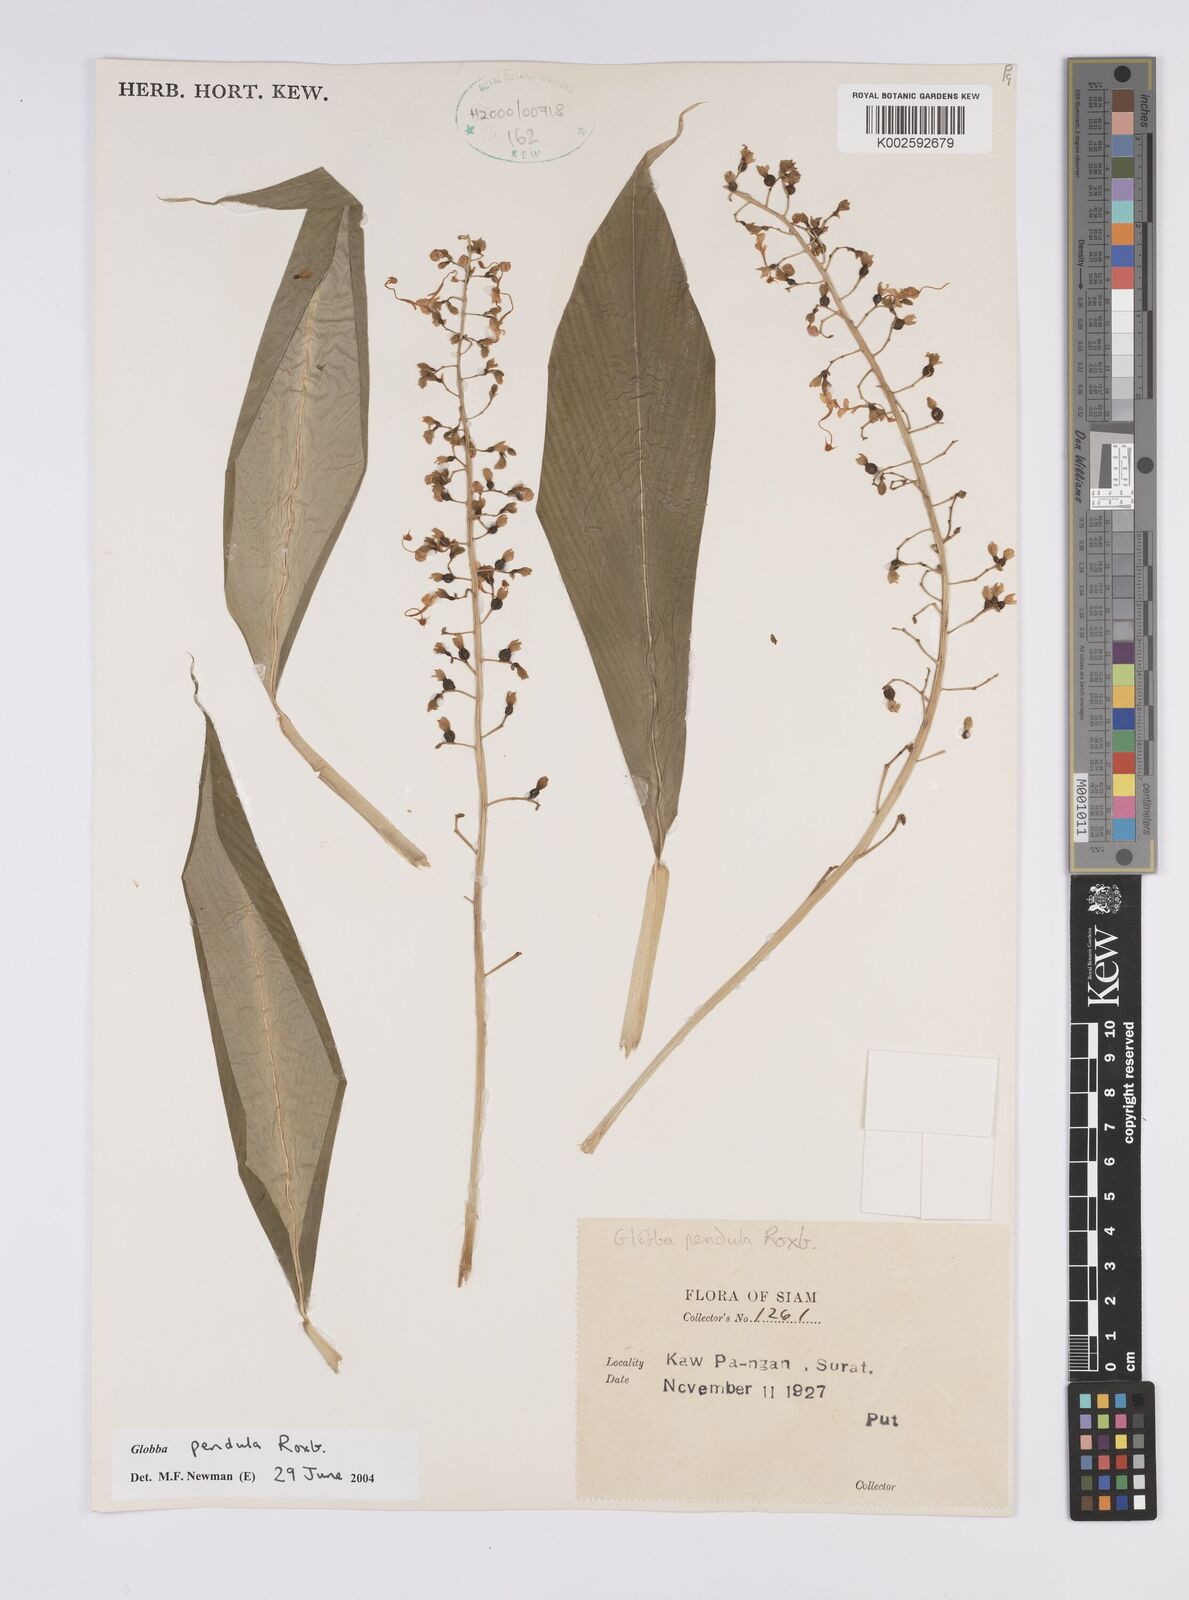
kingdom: Plantae
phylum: Tracheophyta
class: Liliopsida
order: Zingiberales
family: Zingiberaceae
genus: Globba
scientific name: Globba pendula
